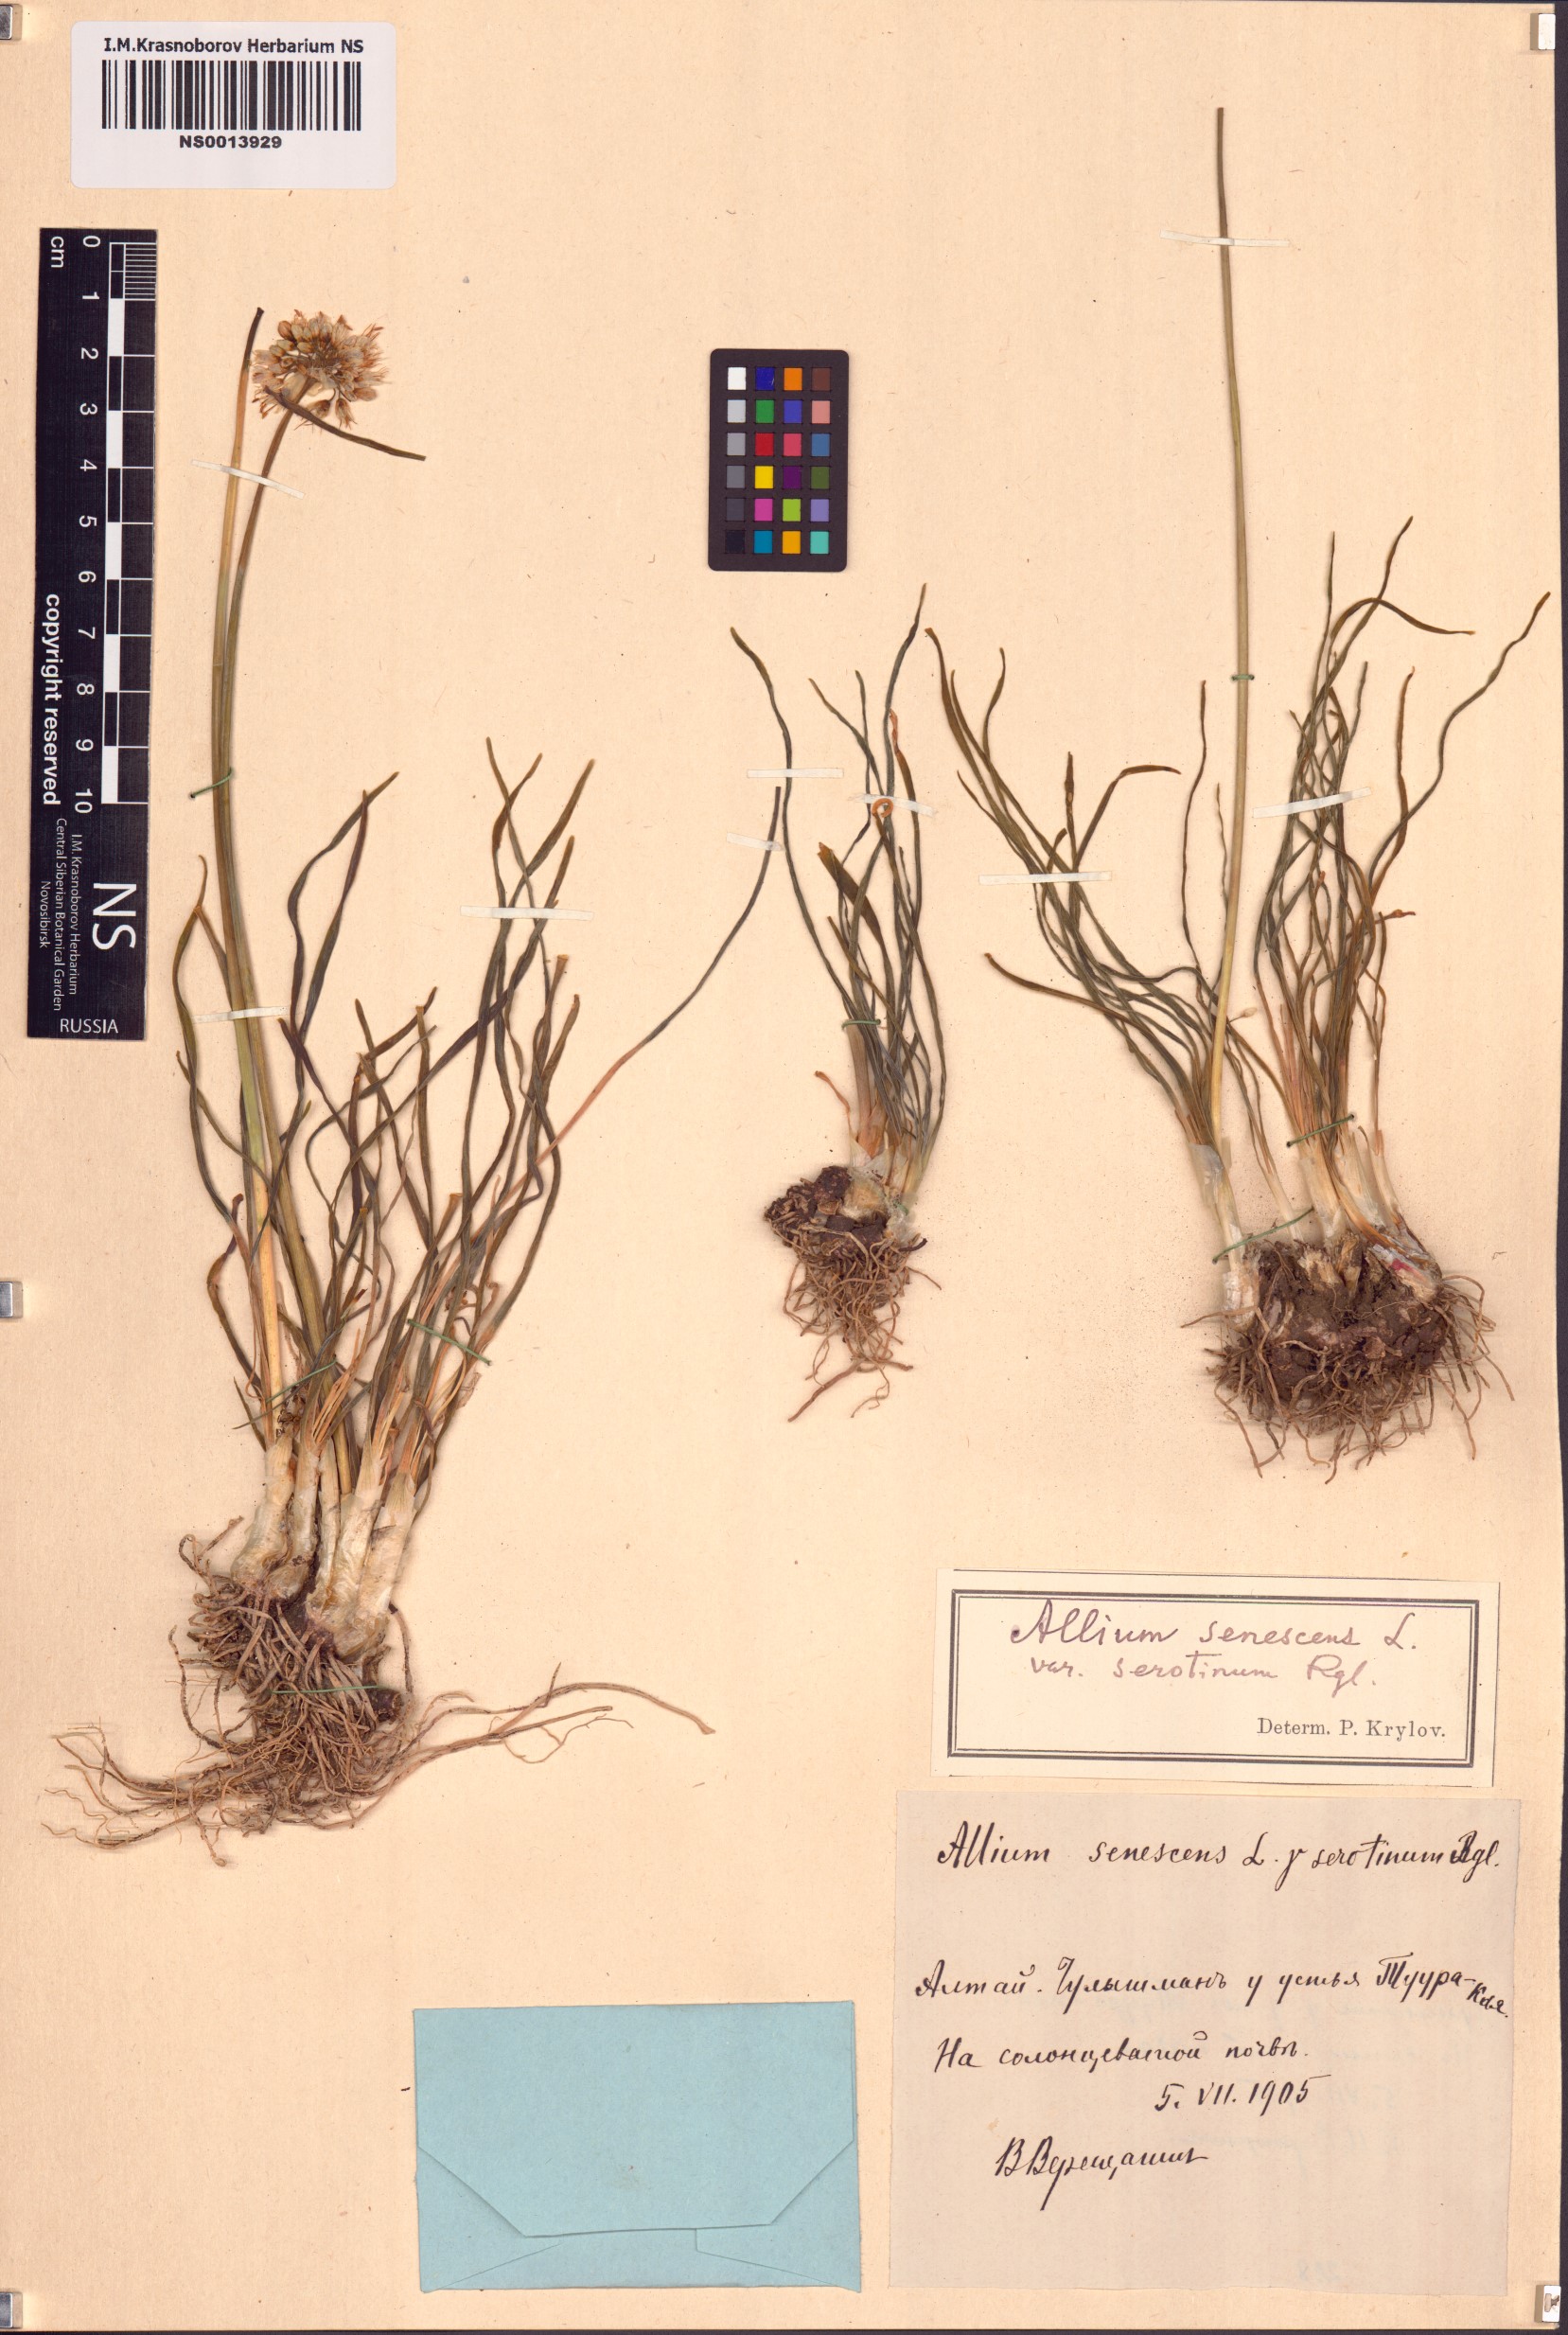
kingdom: Plantae
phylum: Tracheophyta
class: Liliopsida
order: Asparagales
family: Amaryllidaceae
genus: Allium
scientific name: Allium senescens
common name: German garlic
